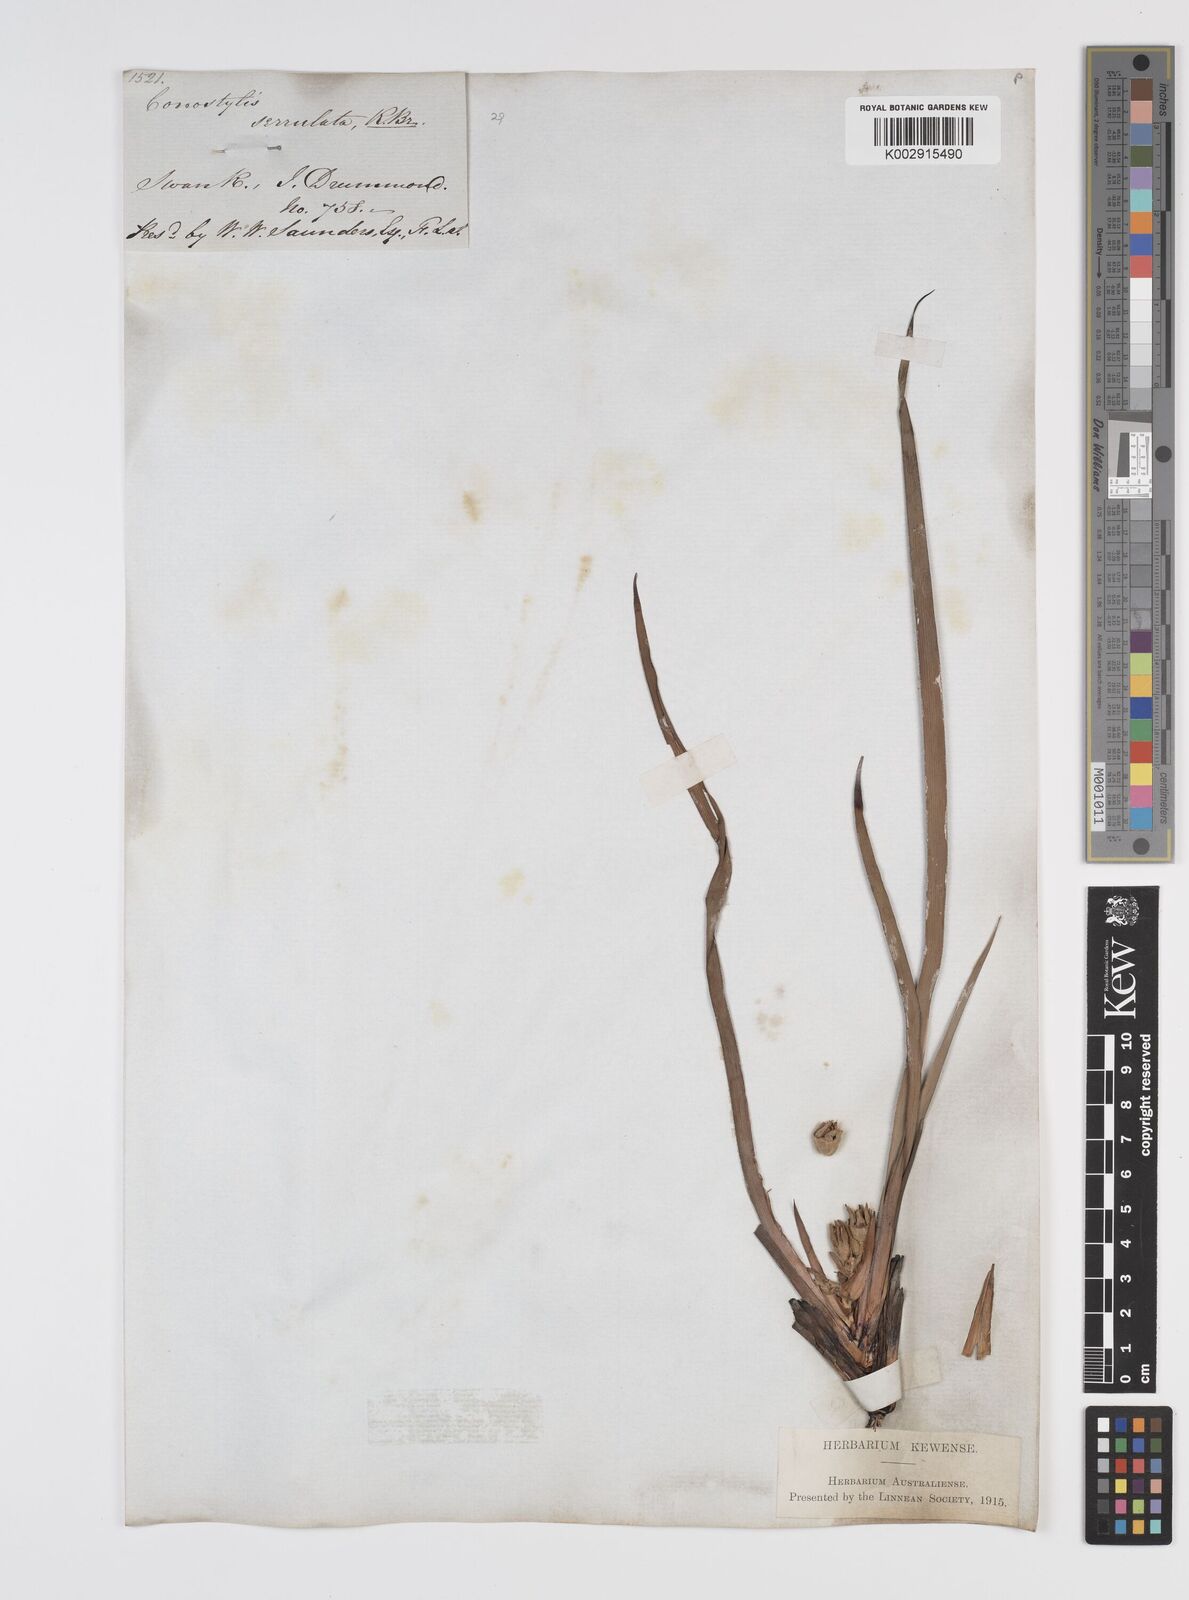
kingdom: Plantae
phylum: Tracheophyta
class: Liliopsida
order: Commelinales
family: Haemodoraceae
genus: Conostylis
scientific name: Conostylis serrulata
